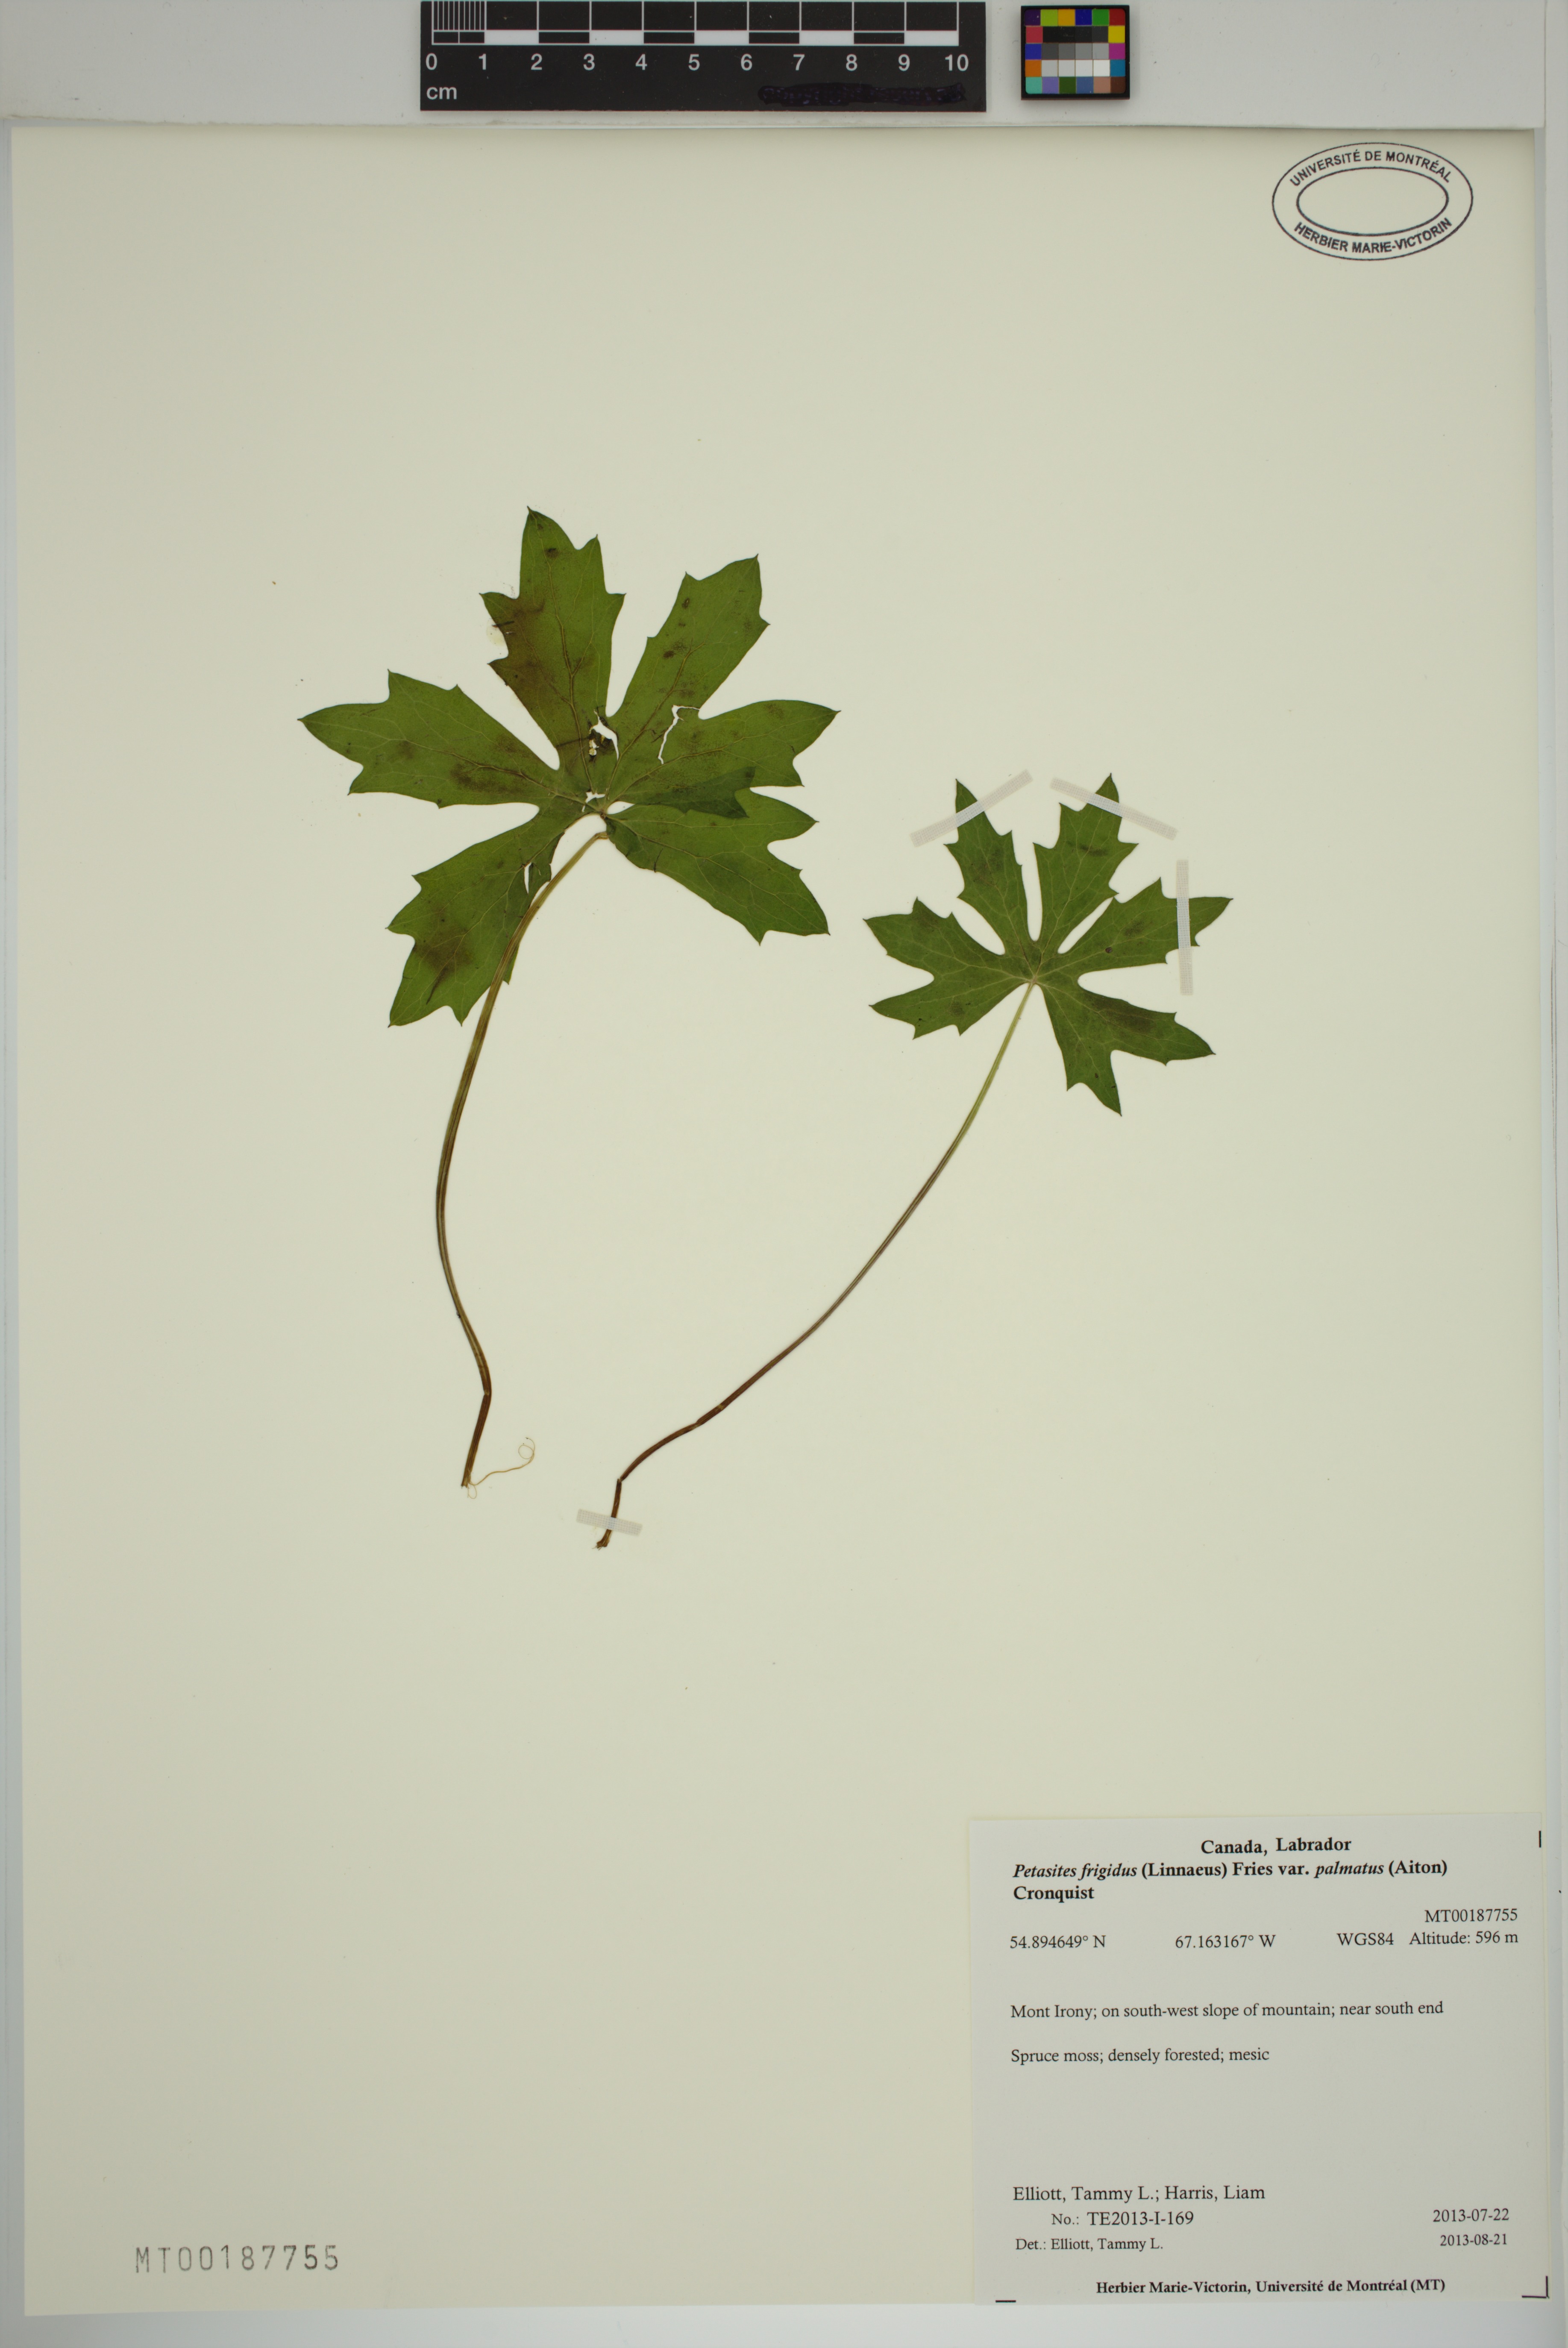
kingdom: Plantae
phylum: Tracheophyta
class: Magnoliopsida
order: Asterales
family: Asteraceae
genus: Petasites
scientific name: Petasites frigidus
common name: Arctic butterbur
